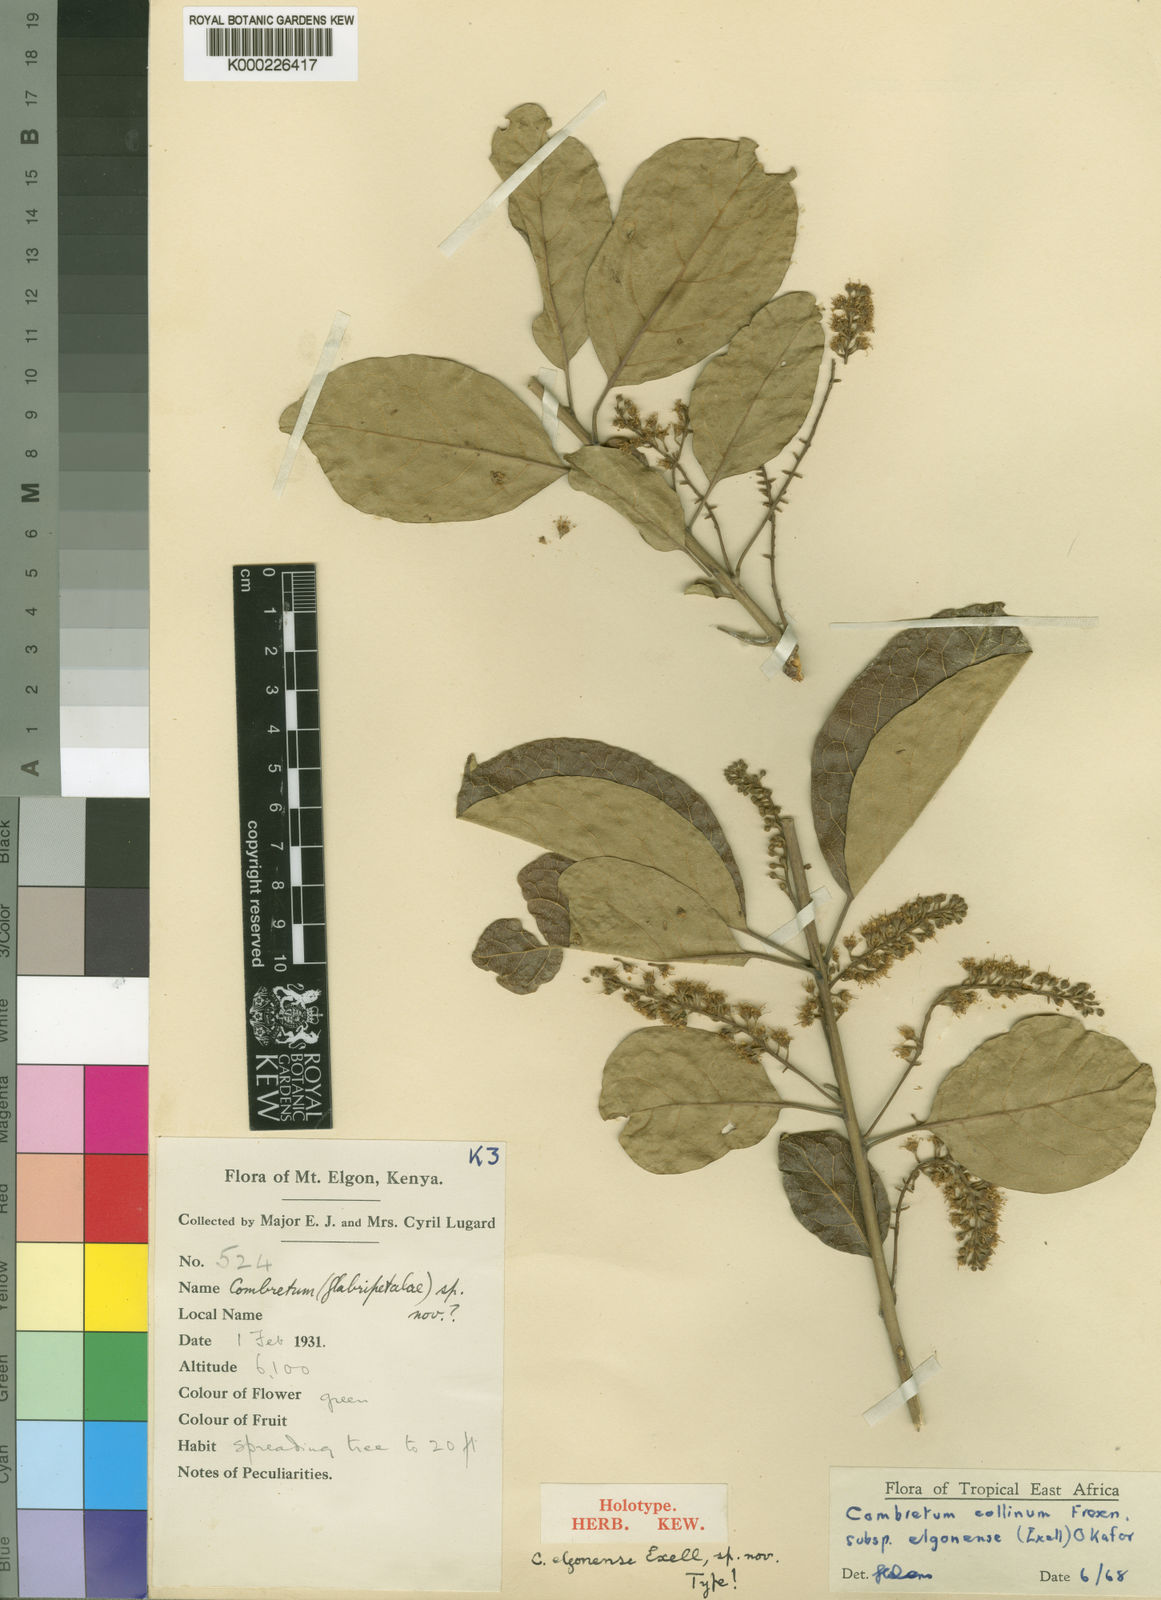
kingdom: Plantae
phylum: Tracheophyta
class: Magnoliopsida
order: Myrtales
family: Combretaceae
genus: Combretum
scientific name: Combretum collinum
